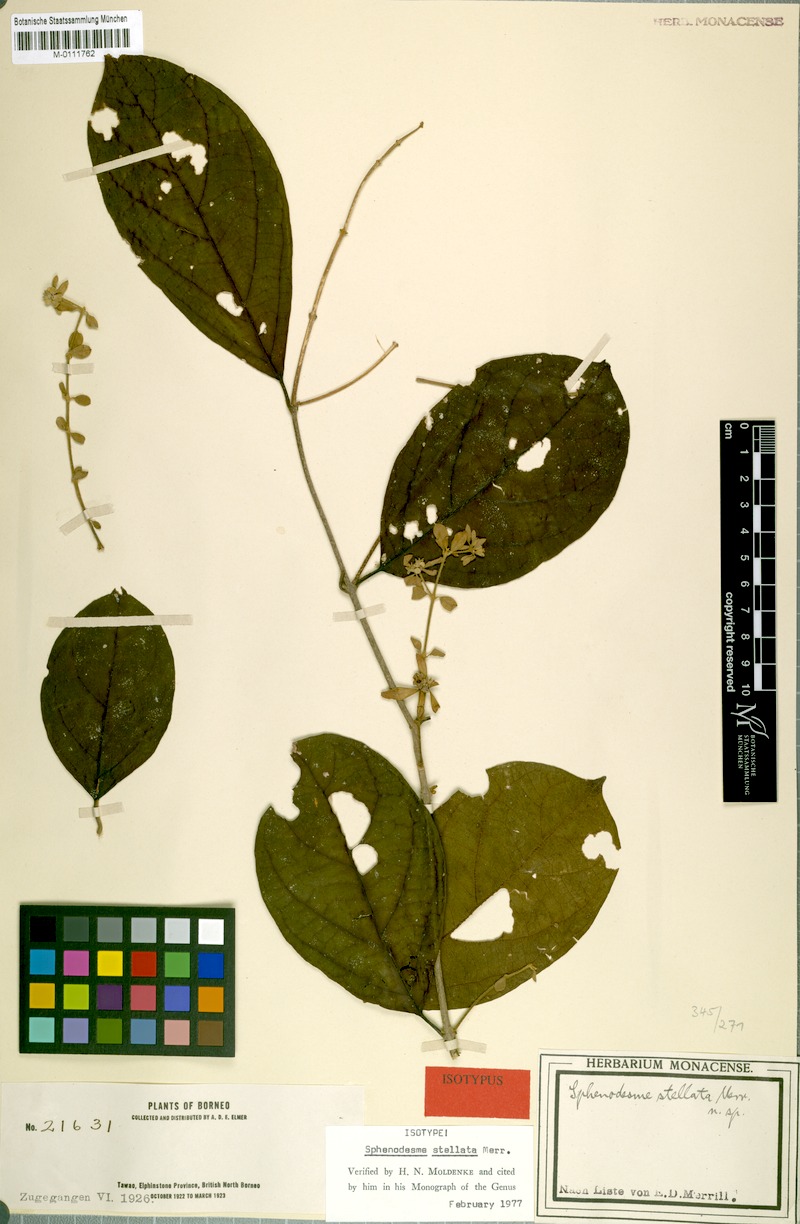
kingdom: Plantae
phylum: Tracheophyta
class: Magnoliopsida
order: Lamiales
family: Lamiaceae
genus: Sphenodesme
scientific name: Sphenodesme stellata
